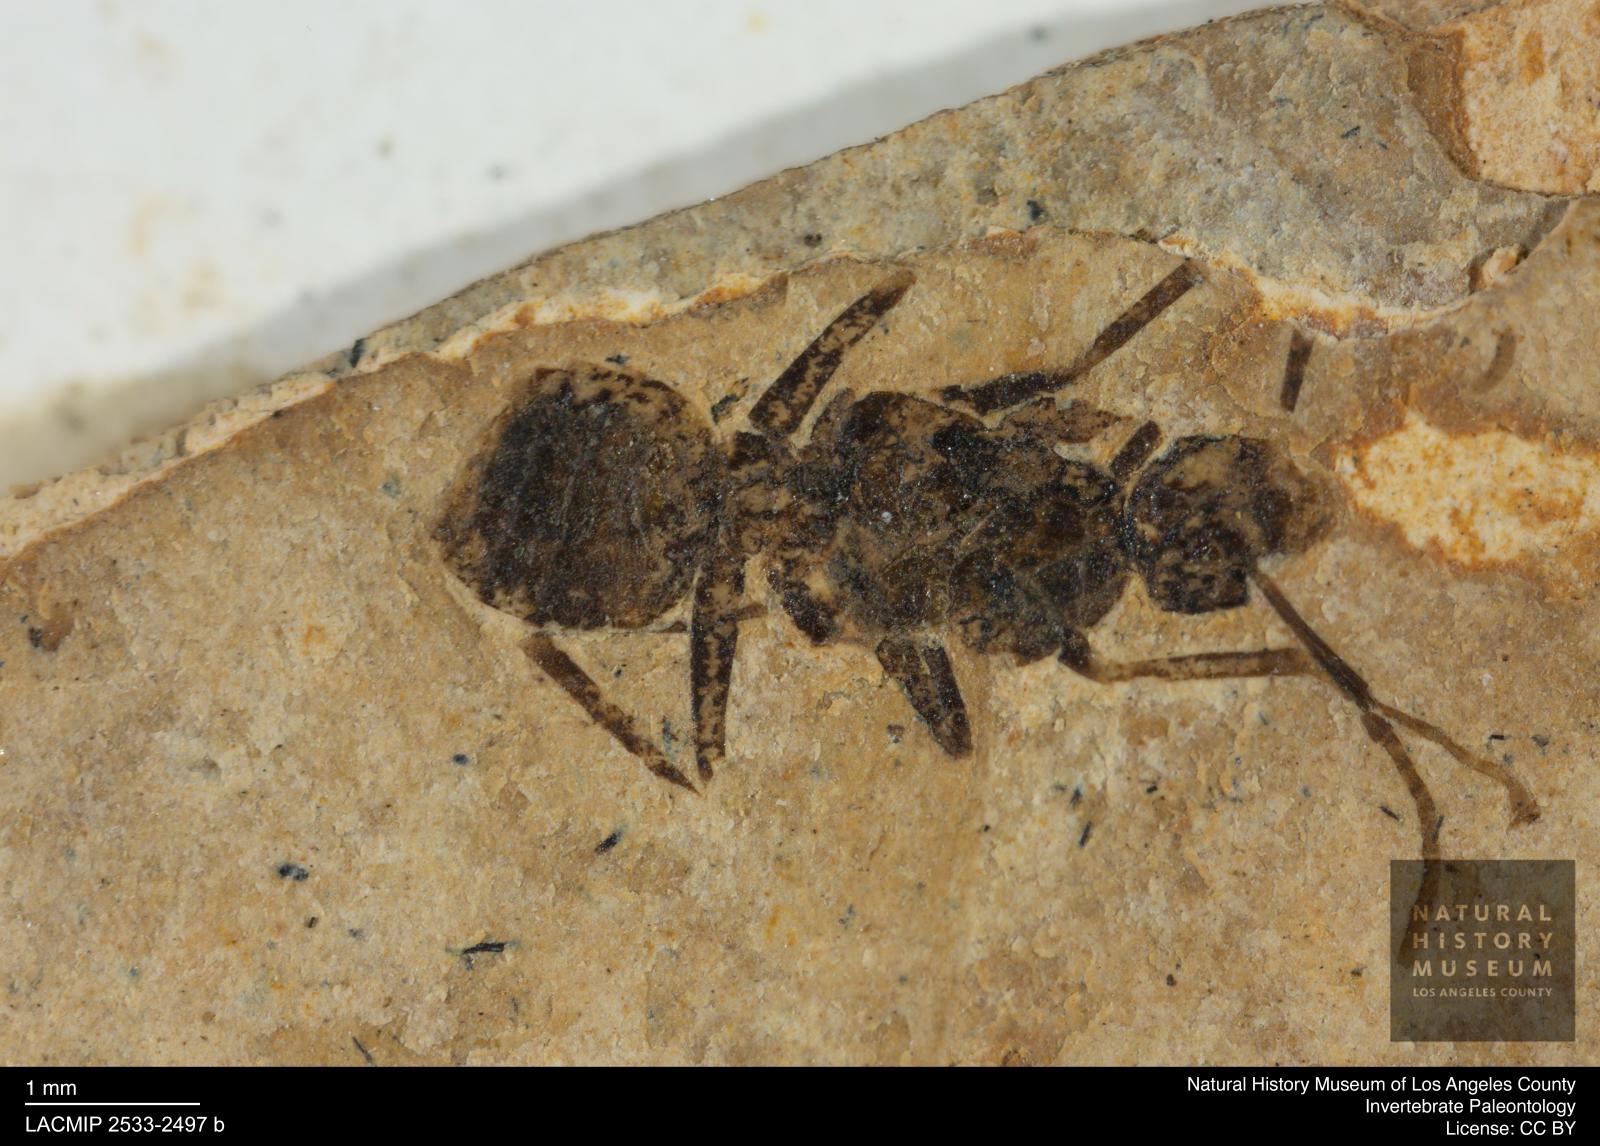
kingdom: Animalia
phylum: Arthropoda
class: Insecta
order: Hymenoptera
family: Formicidae
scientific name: Formicidae
